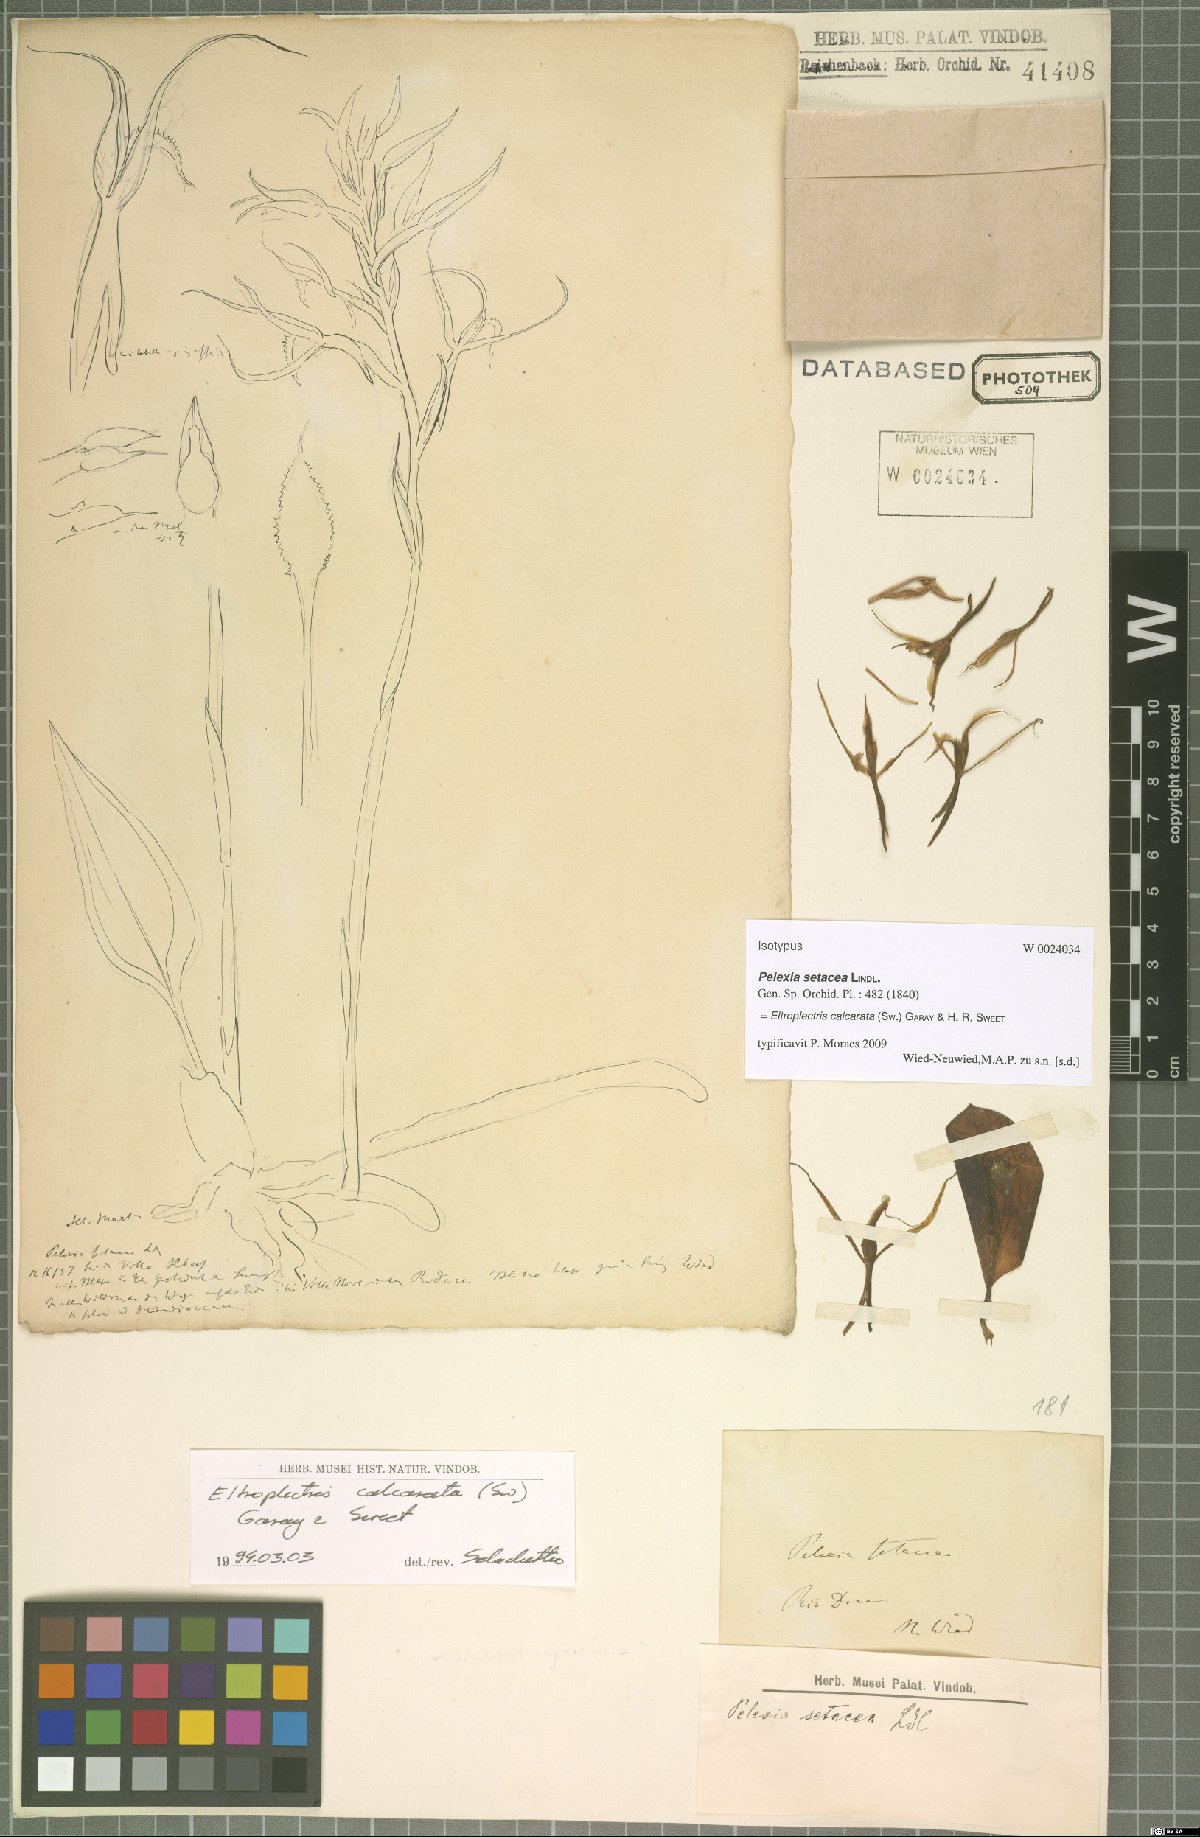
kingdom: Plantae
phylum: Tracheophyta
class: Liliopsida
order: Asparagales
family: Orchidaceae
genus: Eltroplectris
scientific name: Eltroplectris calcarata
